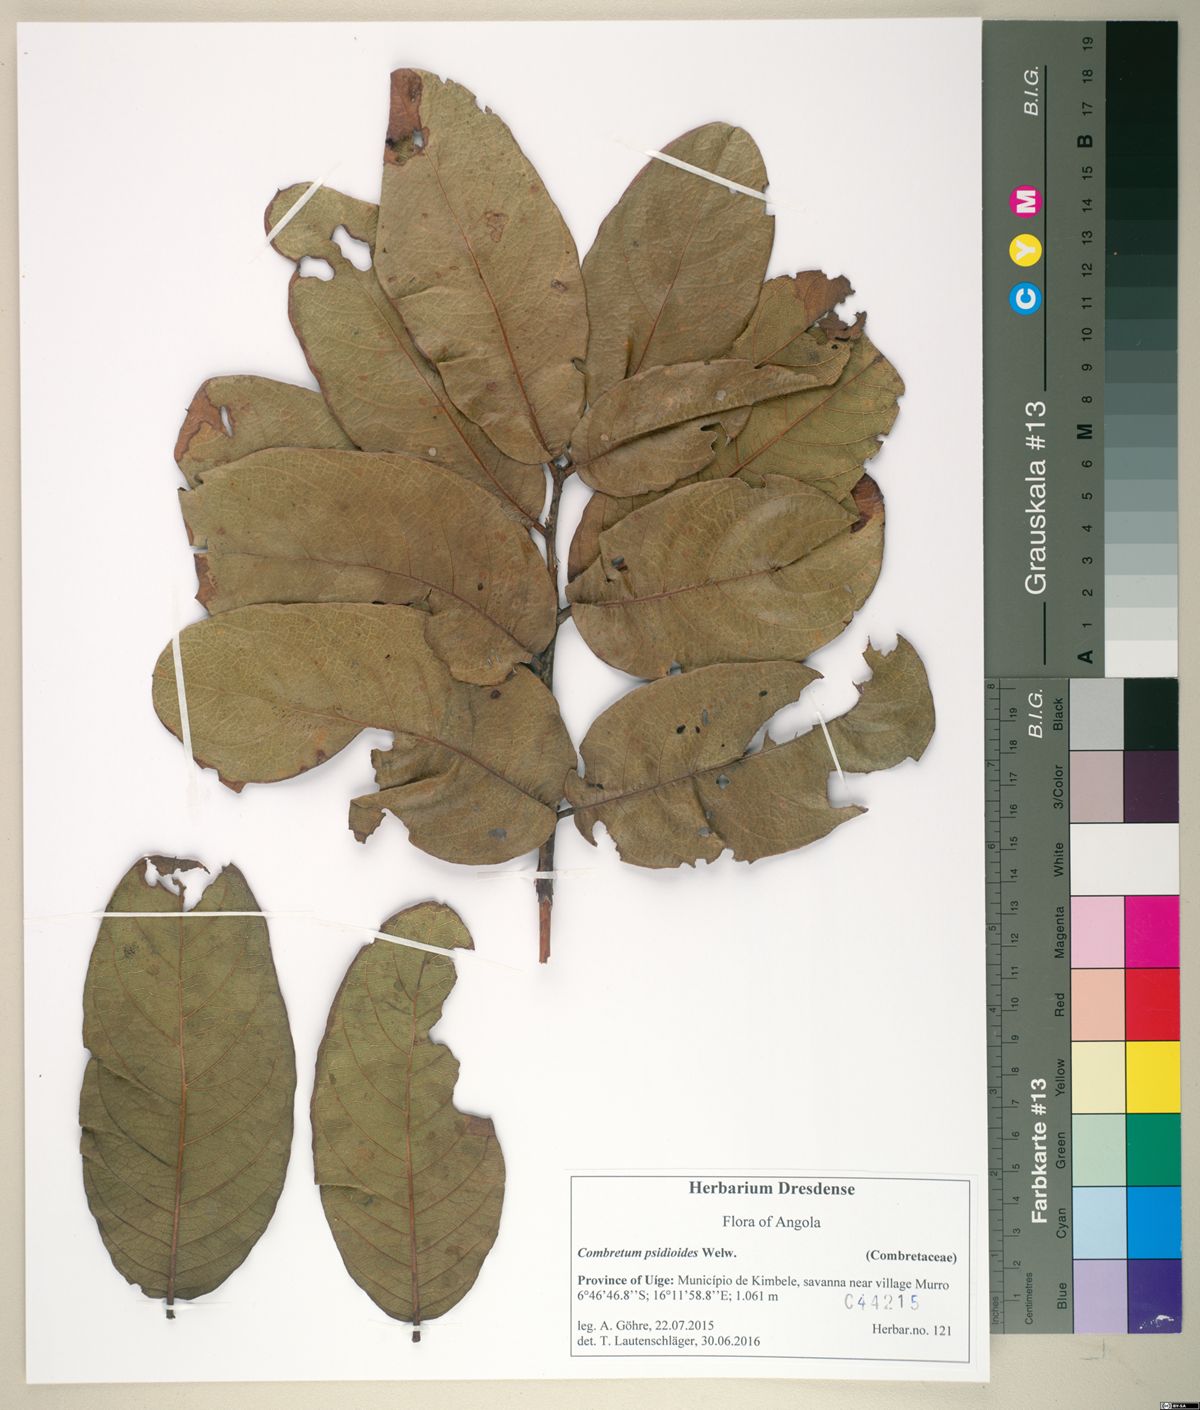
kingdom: Plantae
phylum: Tracheophyta
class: Magnoliopsida
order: Myrtales
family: Combretaceae
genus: Combretum
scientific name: Combretum psidioides
